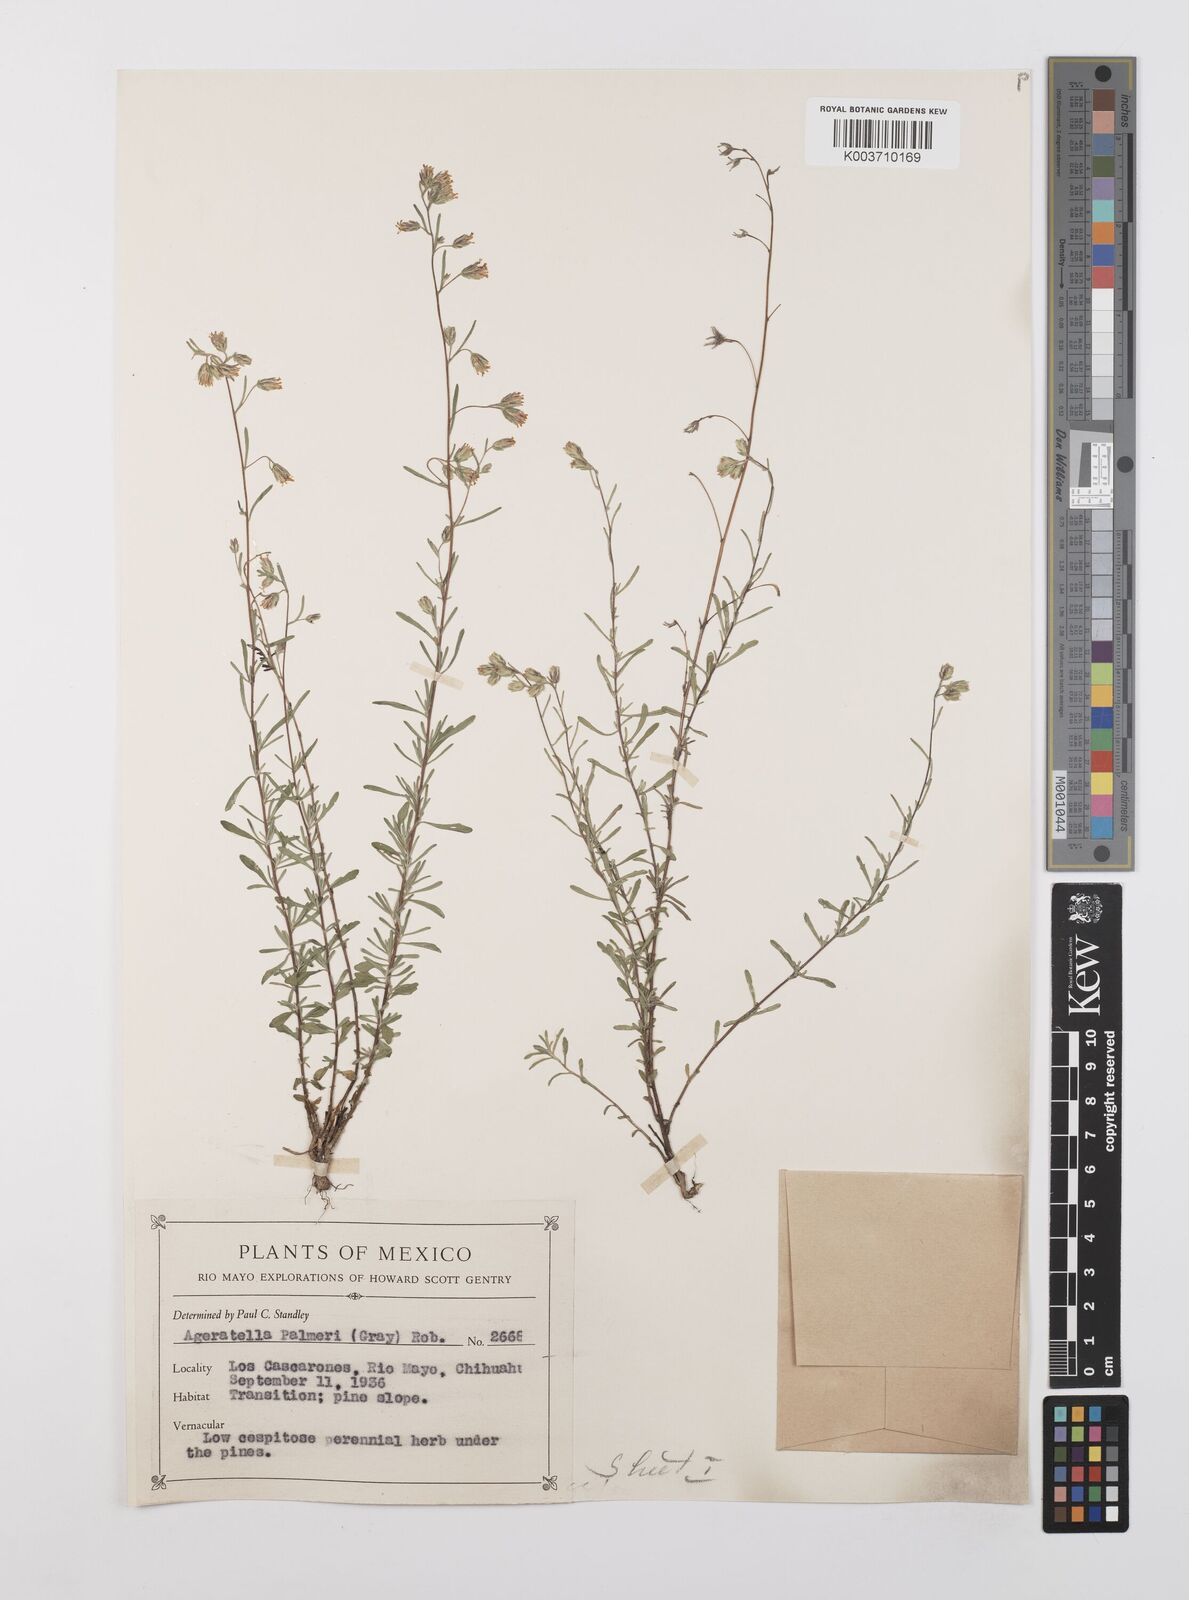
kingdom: Plantae
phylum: Tracheophyta
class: Magnoliopsida
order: Asterales
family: Asteraceae
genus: Ageratella
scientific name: Ageratella microphylla
